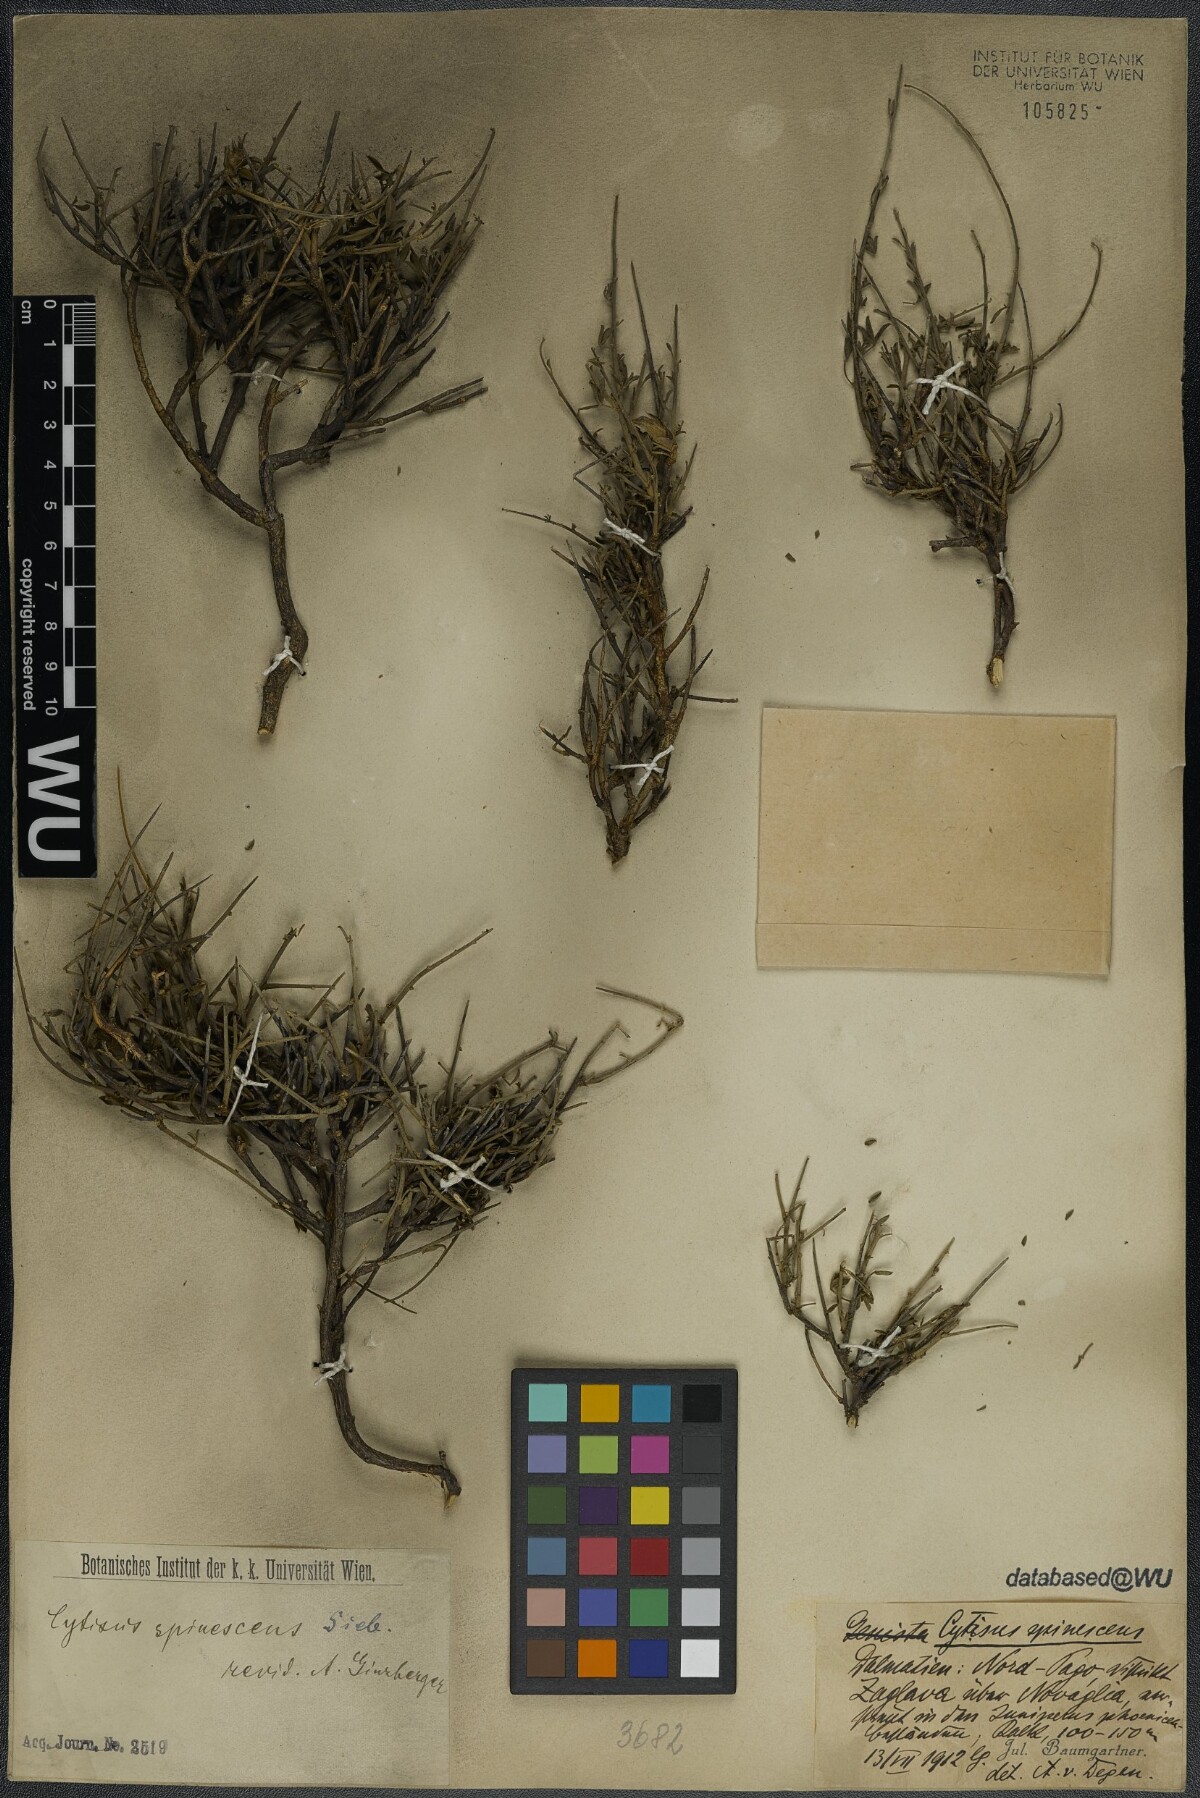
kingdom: Plantae
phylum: Tracheophyta
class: Magnoliopsida
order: Fabales
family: Fabaceae
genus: Chamaecytisus
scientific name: Chamaecytisus spinescens
